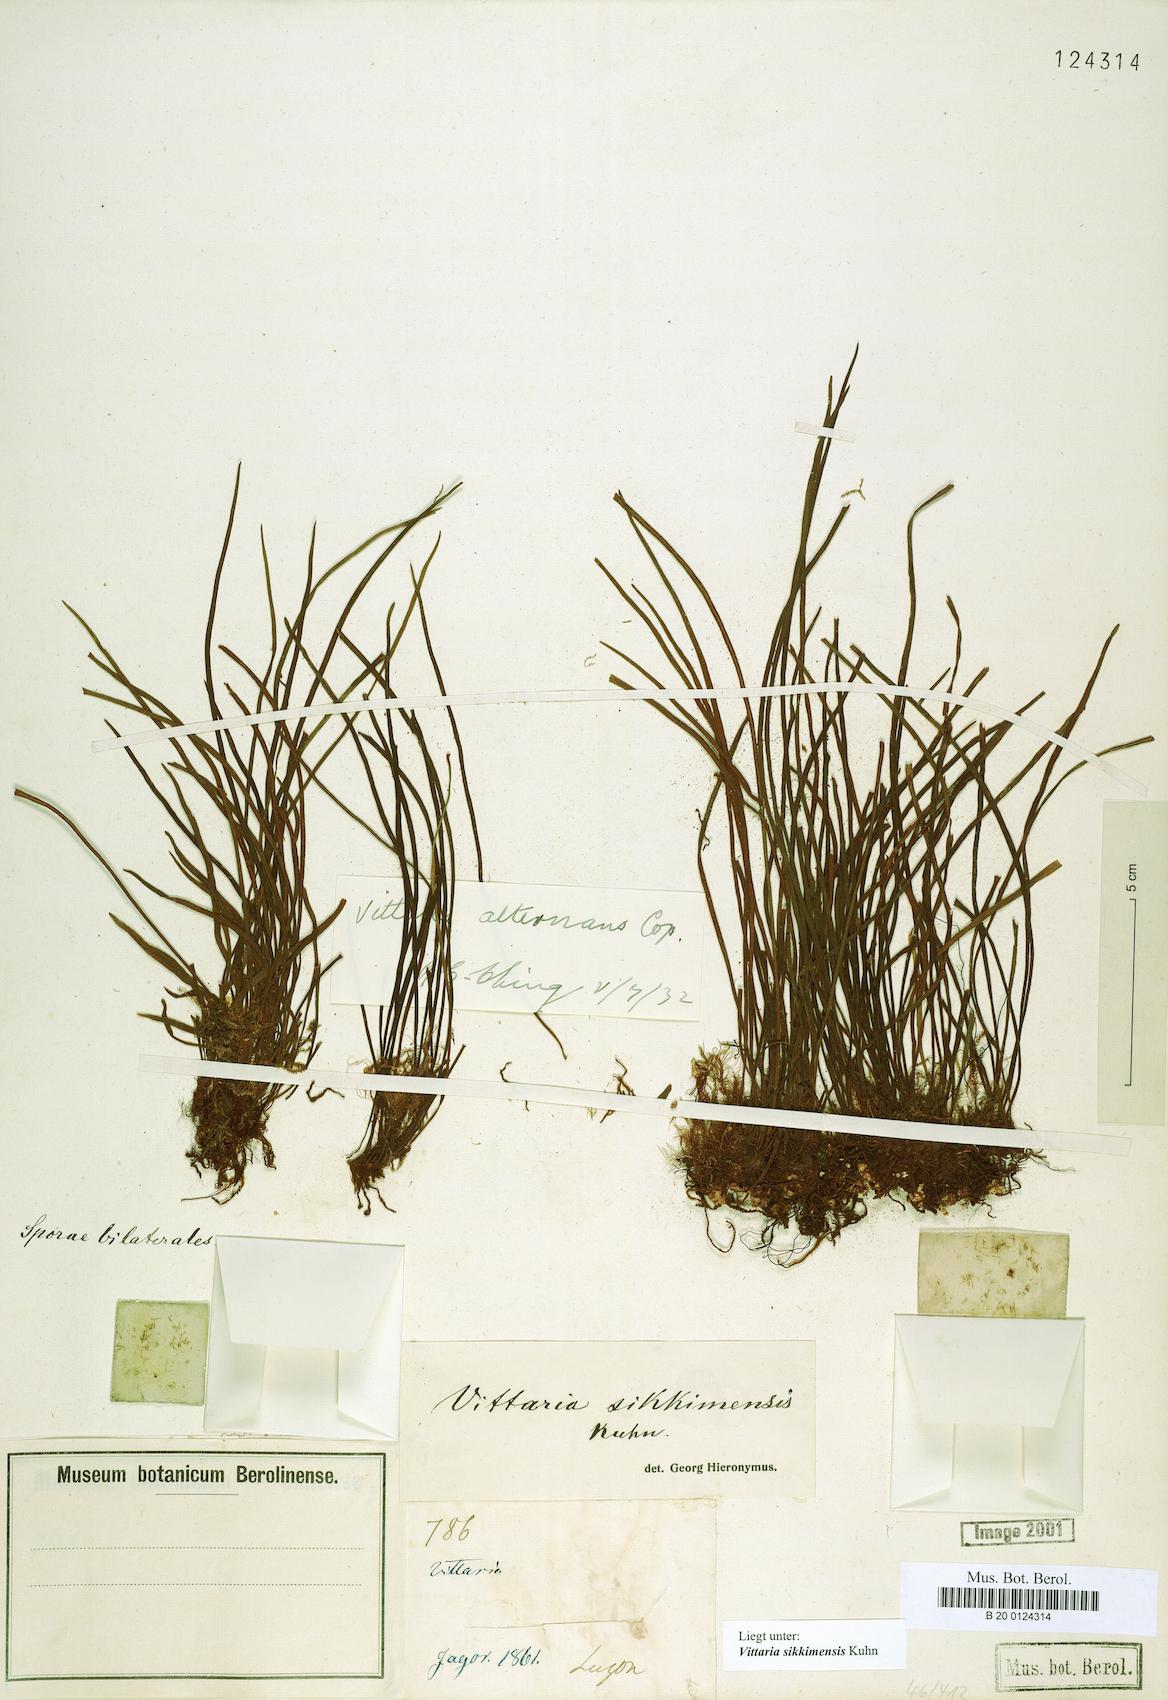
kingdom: Plantae
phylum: Tracheophyta
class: Polypodiopsida
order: Polypodiales
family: Pteridaceae
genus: Haplopteris
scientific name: Haplopteris mediosora
